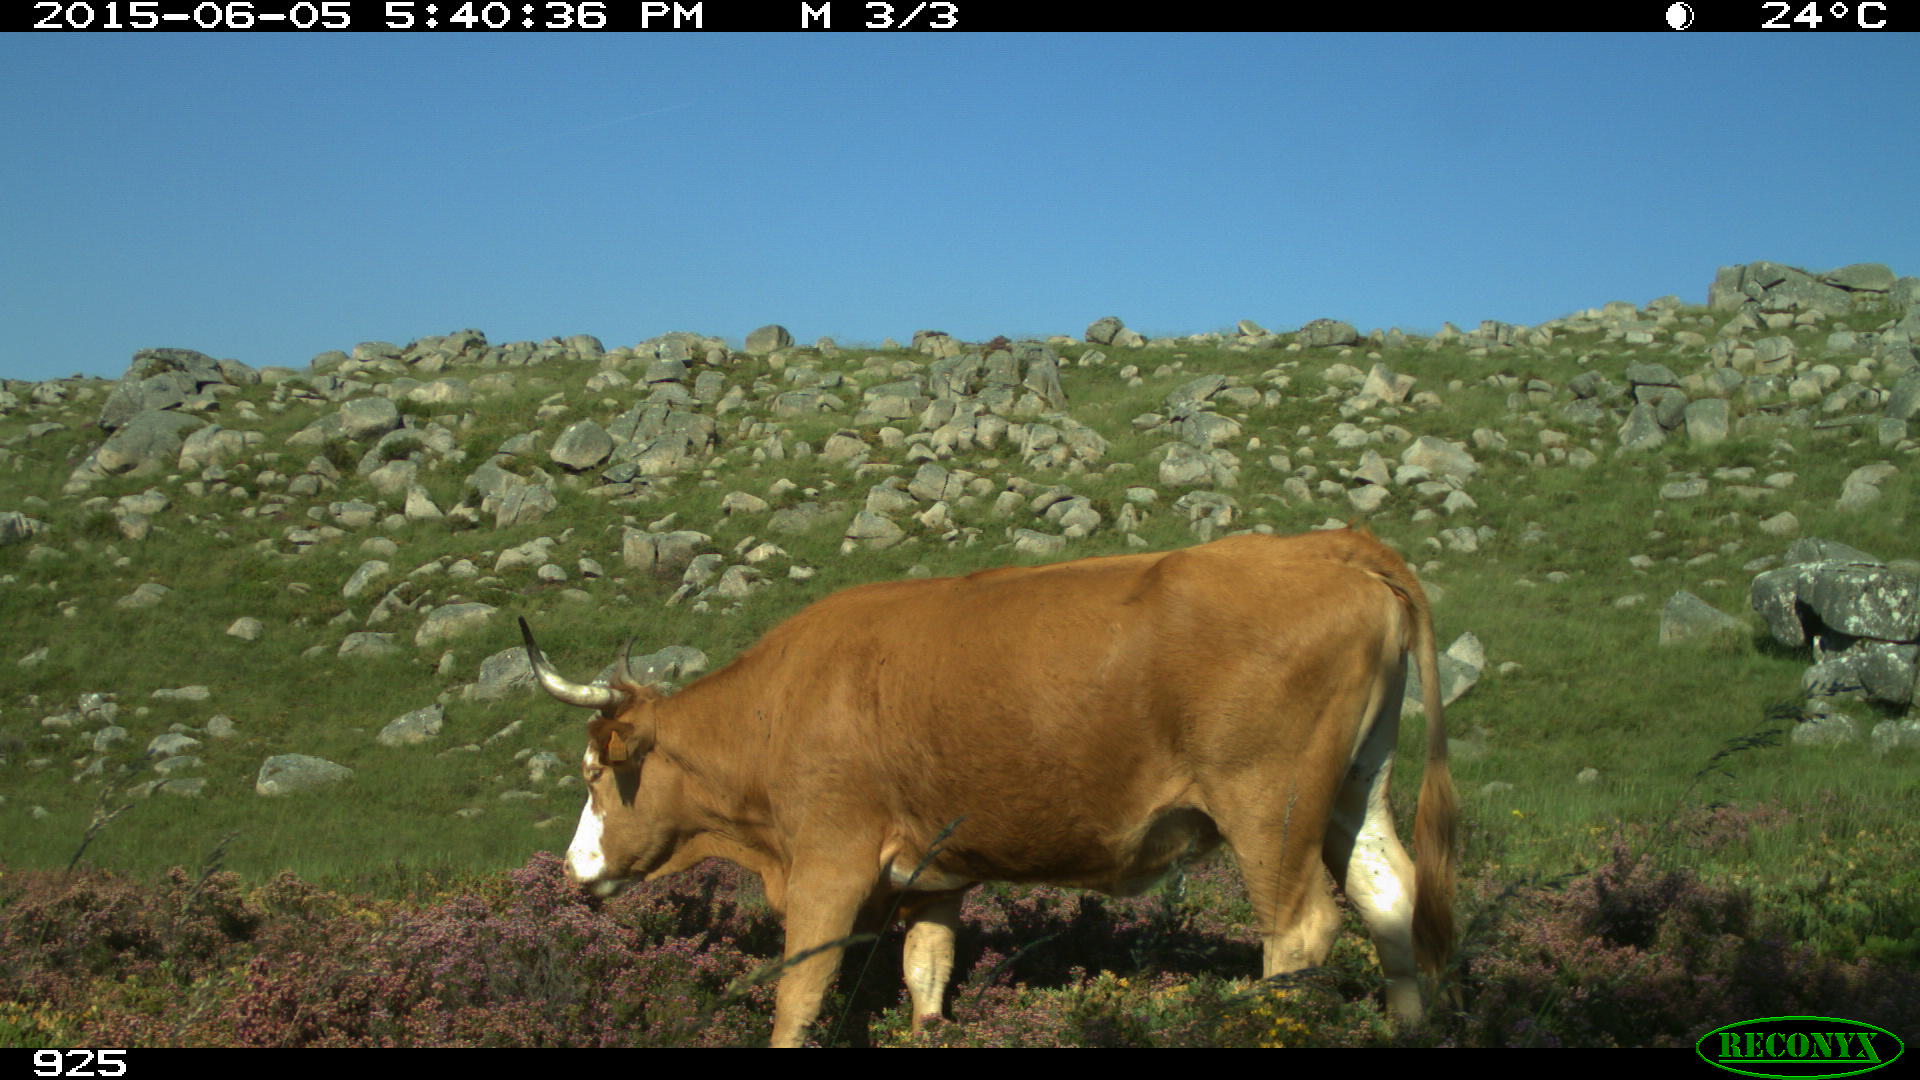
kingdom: Animalia
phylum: Chordata
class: Mammalia
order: Artiodactyla
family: Bovidae
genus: Bos
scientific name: Bos taurus
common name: Domesticated cattle
